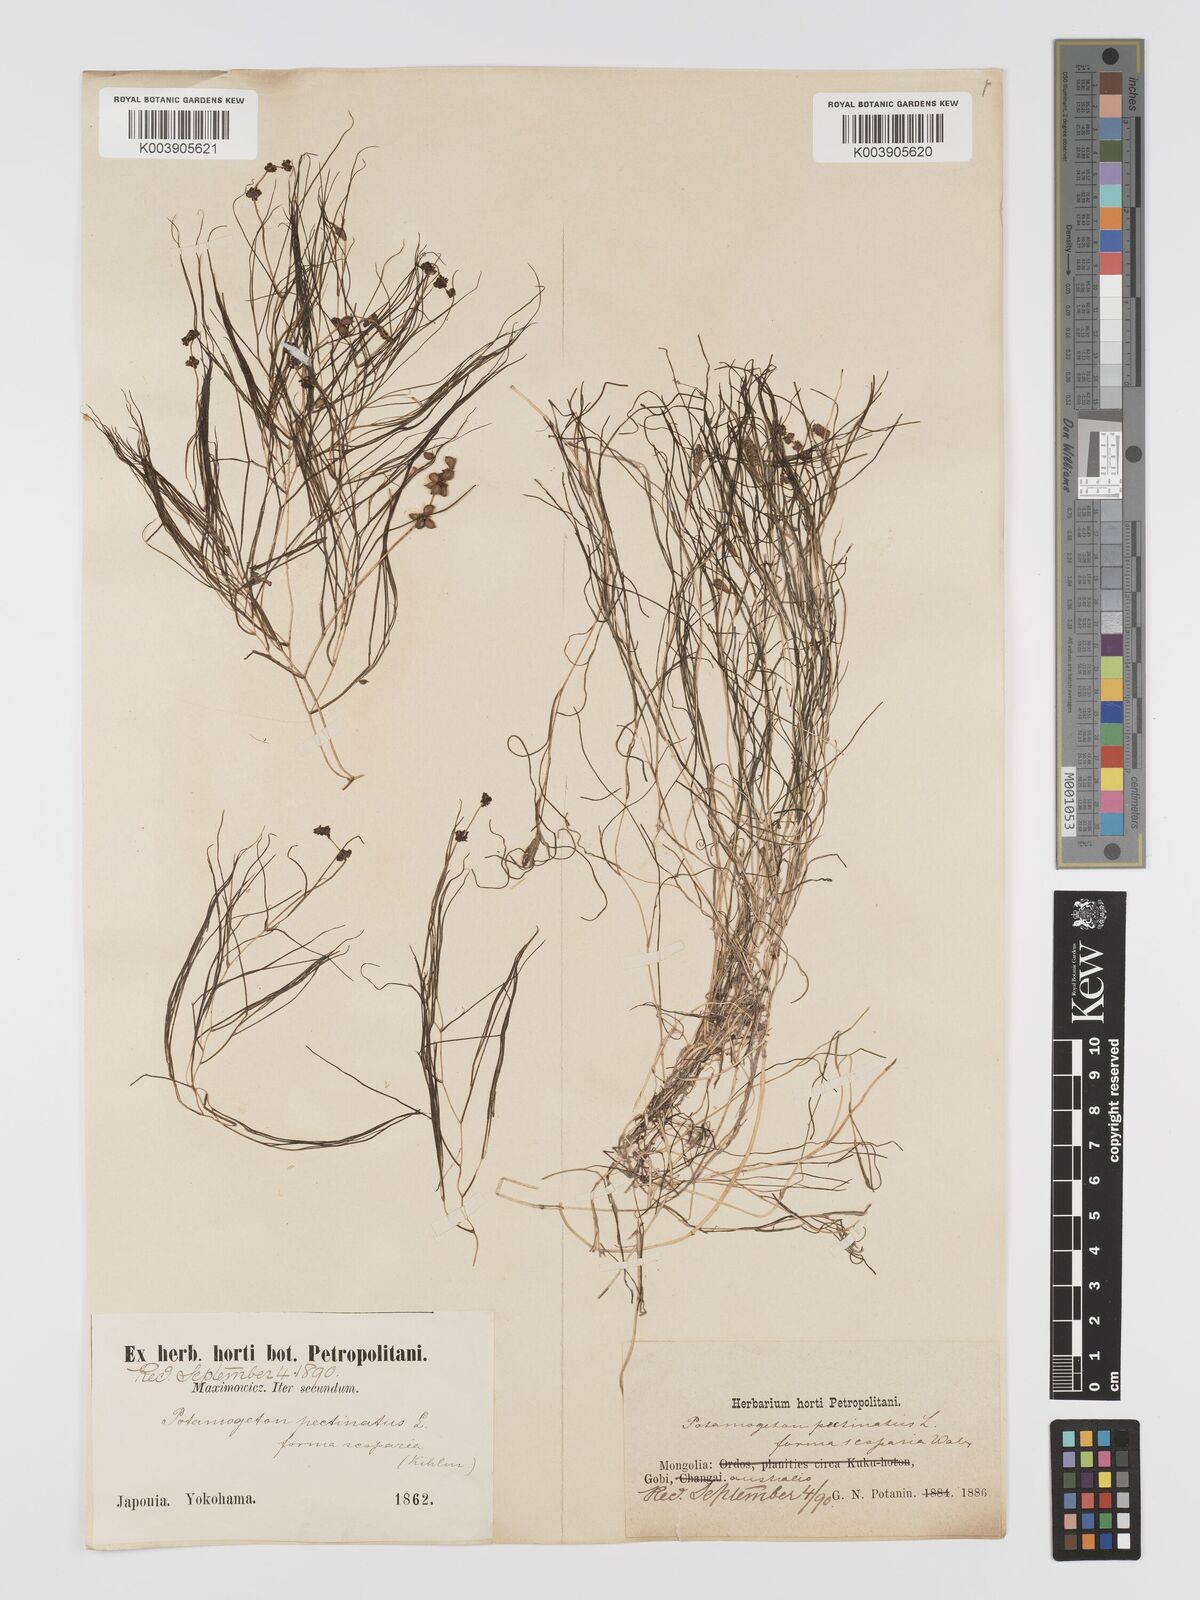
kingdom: Plantae
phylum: Tracheophyta
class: Liliopsida
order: Alismatales
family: Potamogetonaceae
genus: Stuckenia
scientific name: Stuckenia pectinata
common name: Sago pondweed
